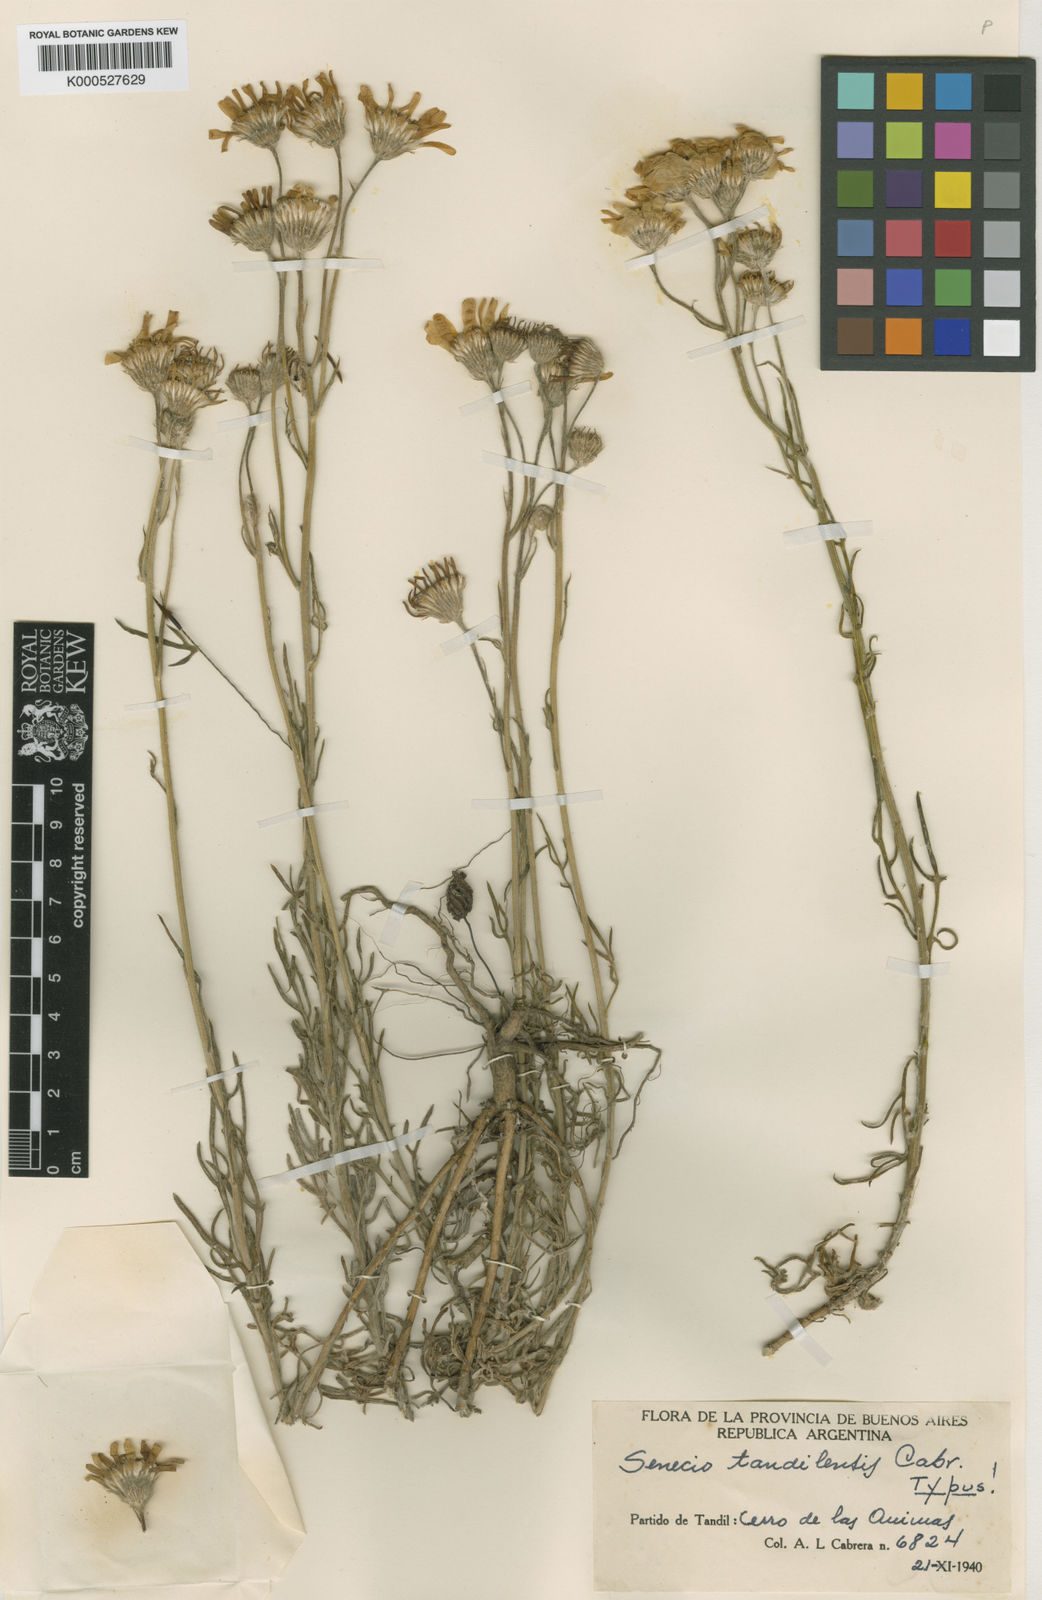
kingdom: Plantae
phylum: Tracheophyta
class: Magnoliopsida
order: Asterales
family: Asteraceae
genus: Senecio
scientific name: Senecio tandilensis
